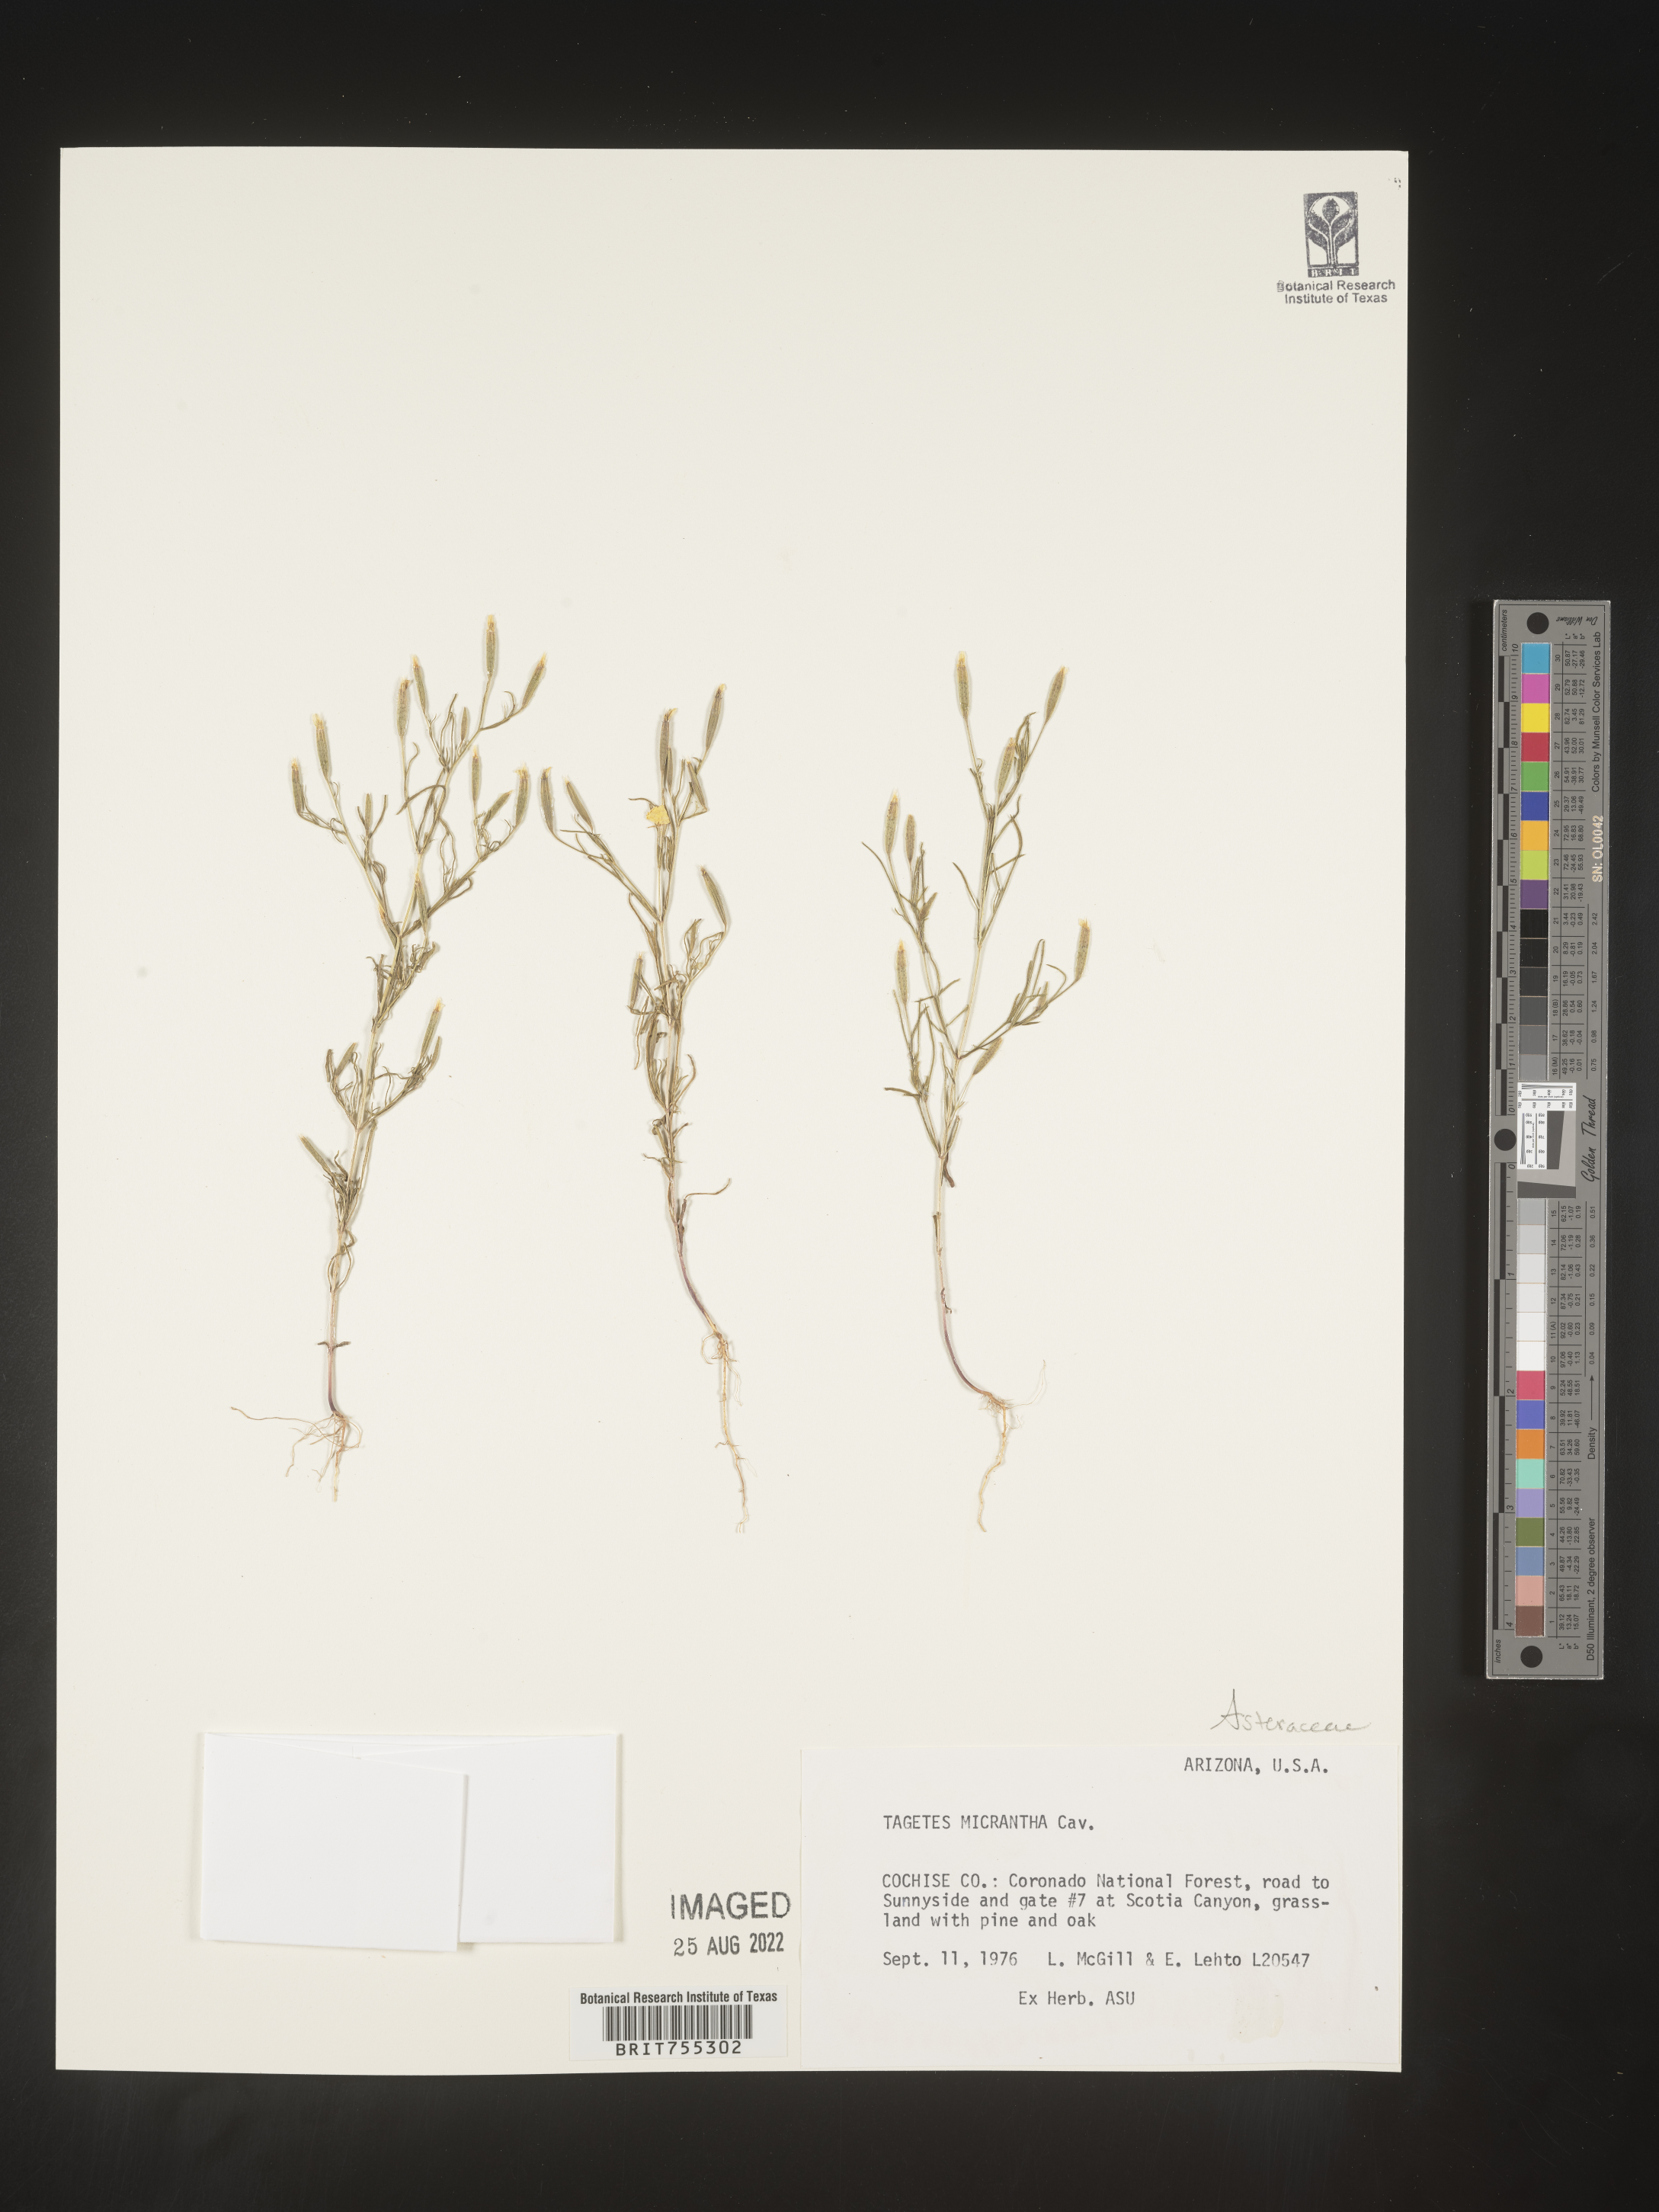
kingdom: Plantae
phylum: Tracheophyta
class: Magnoliopsida
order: Asterales
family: Asteraceae
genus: Tagetes
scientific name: Tagetes
